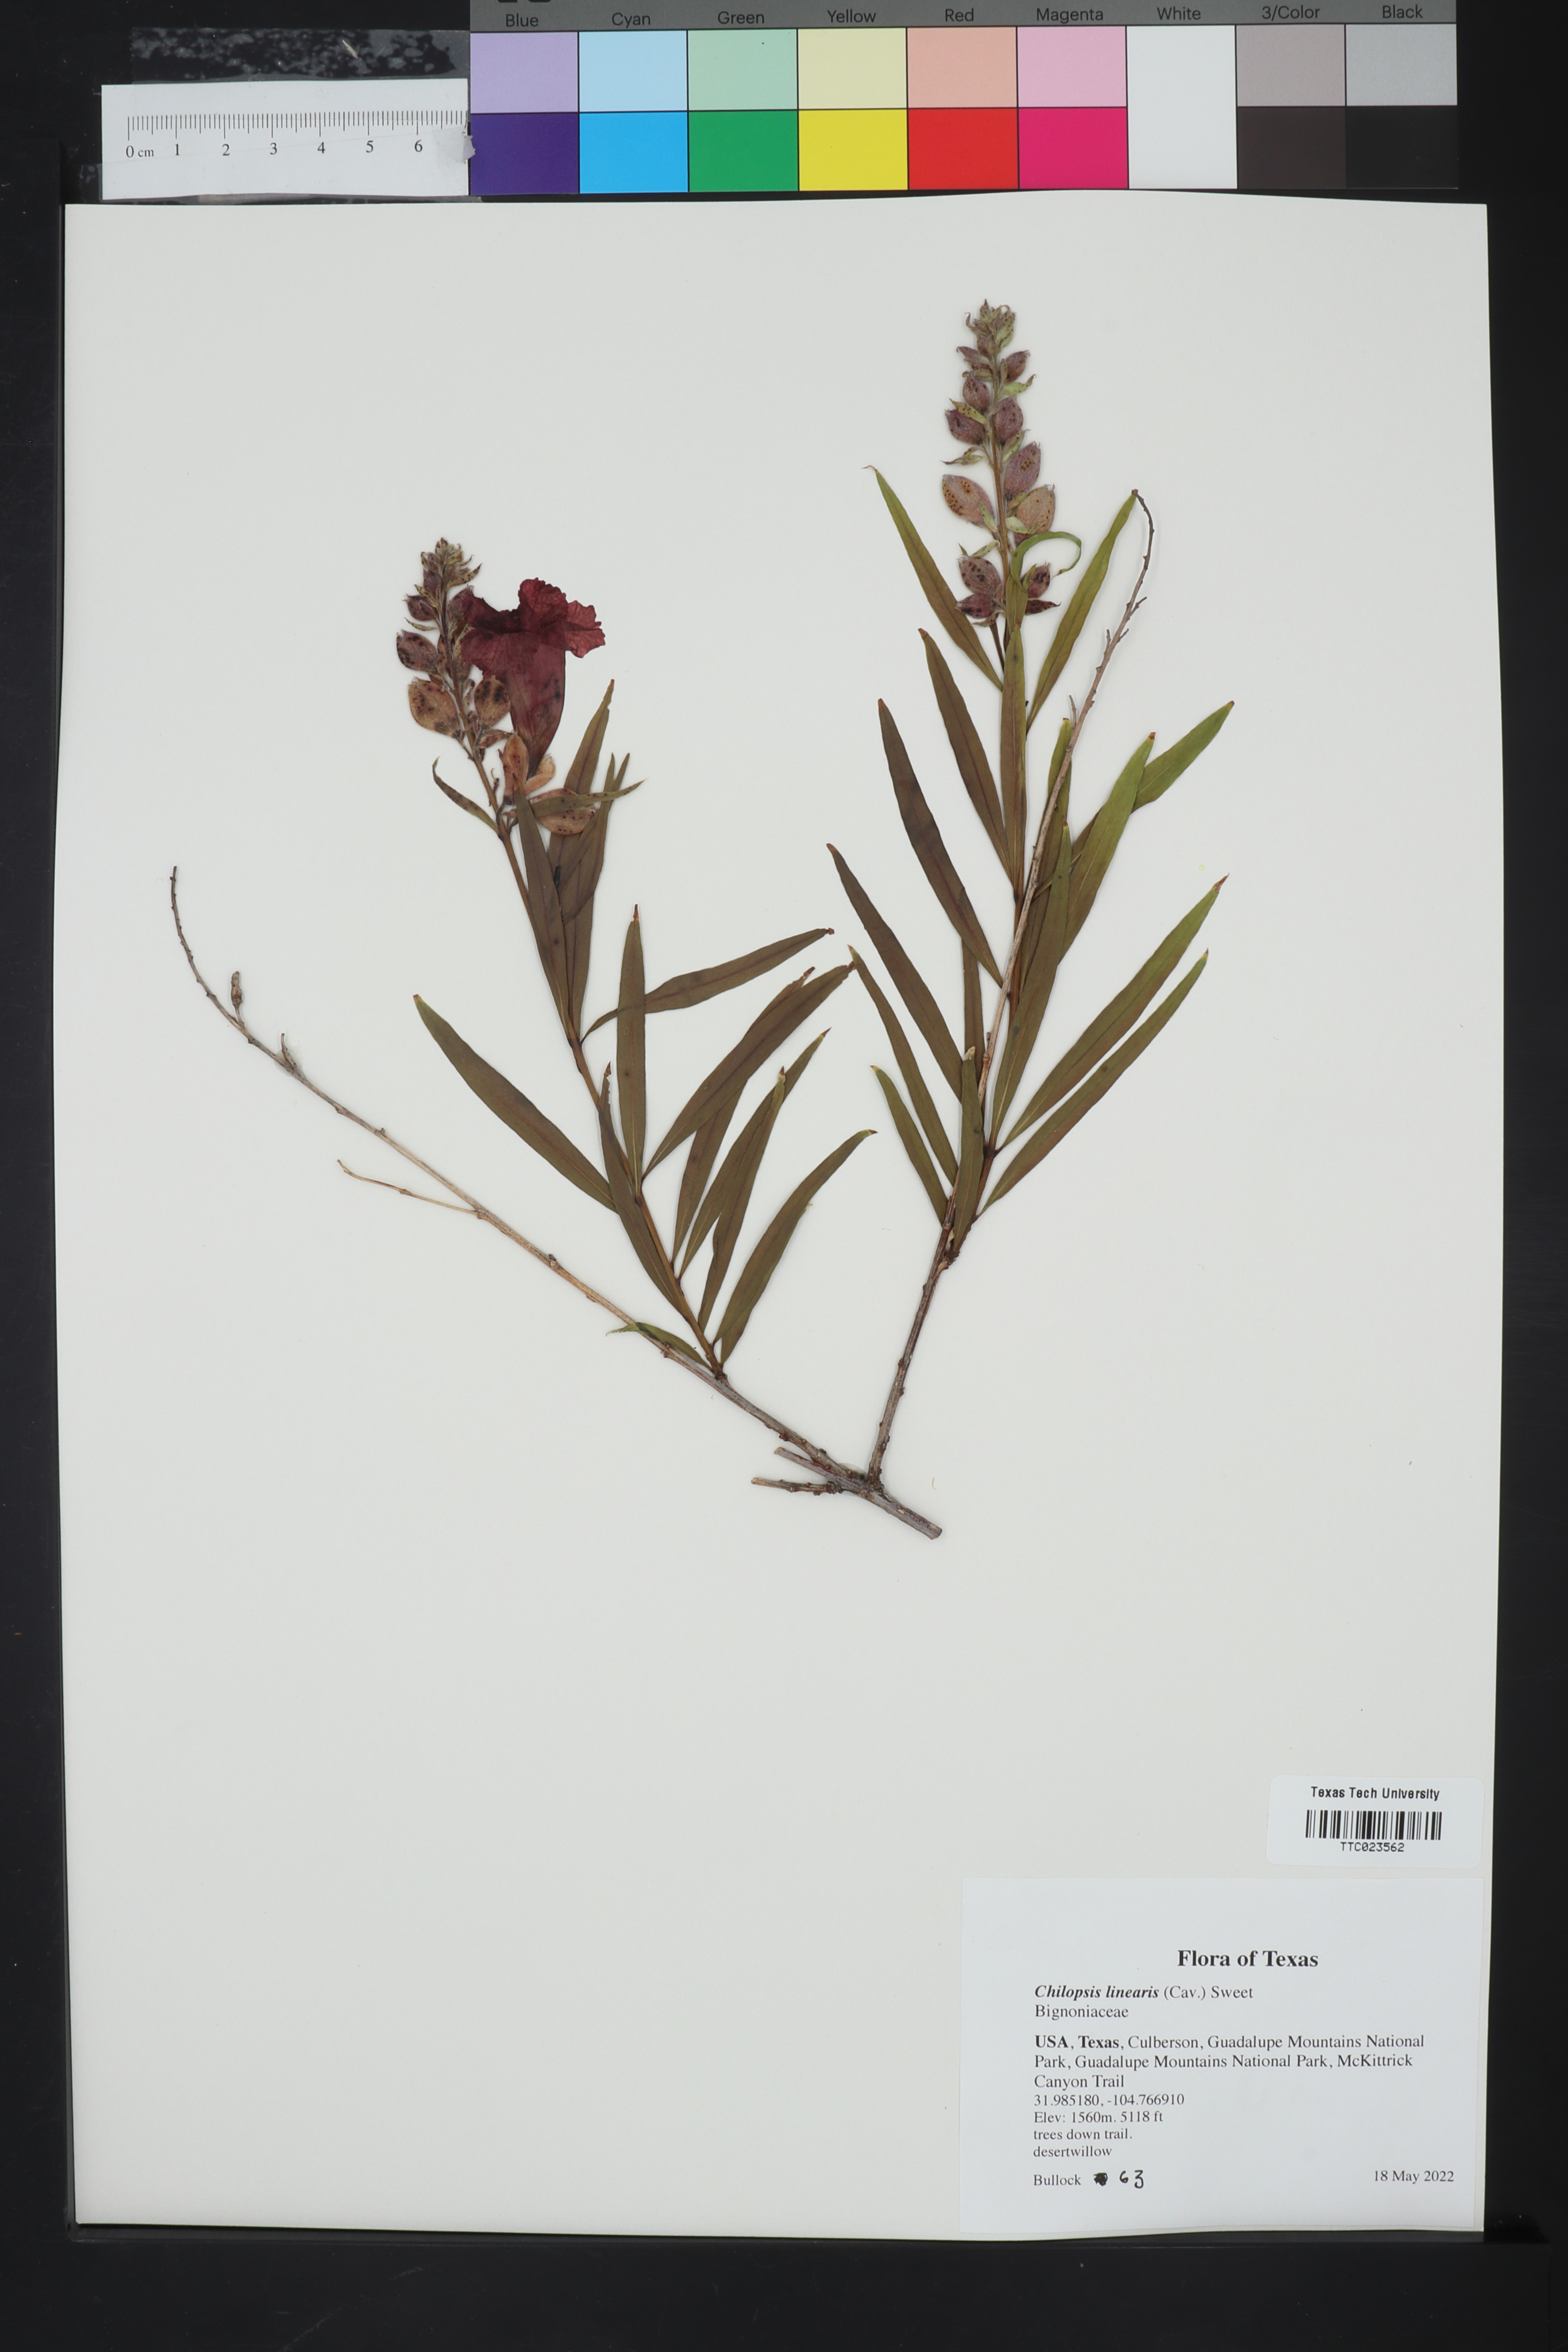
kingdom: Plantae
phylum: Tracheophyta
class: Magnoliopsida
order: Lamiales
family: Bignoniaceae
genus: Chilopsis
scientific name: Chilopsis linearis
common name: Desert-willow
